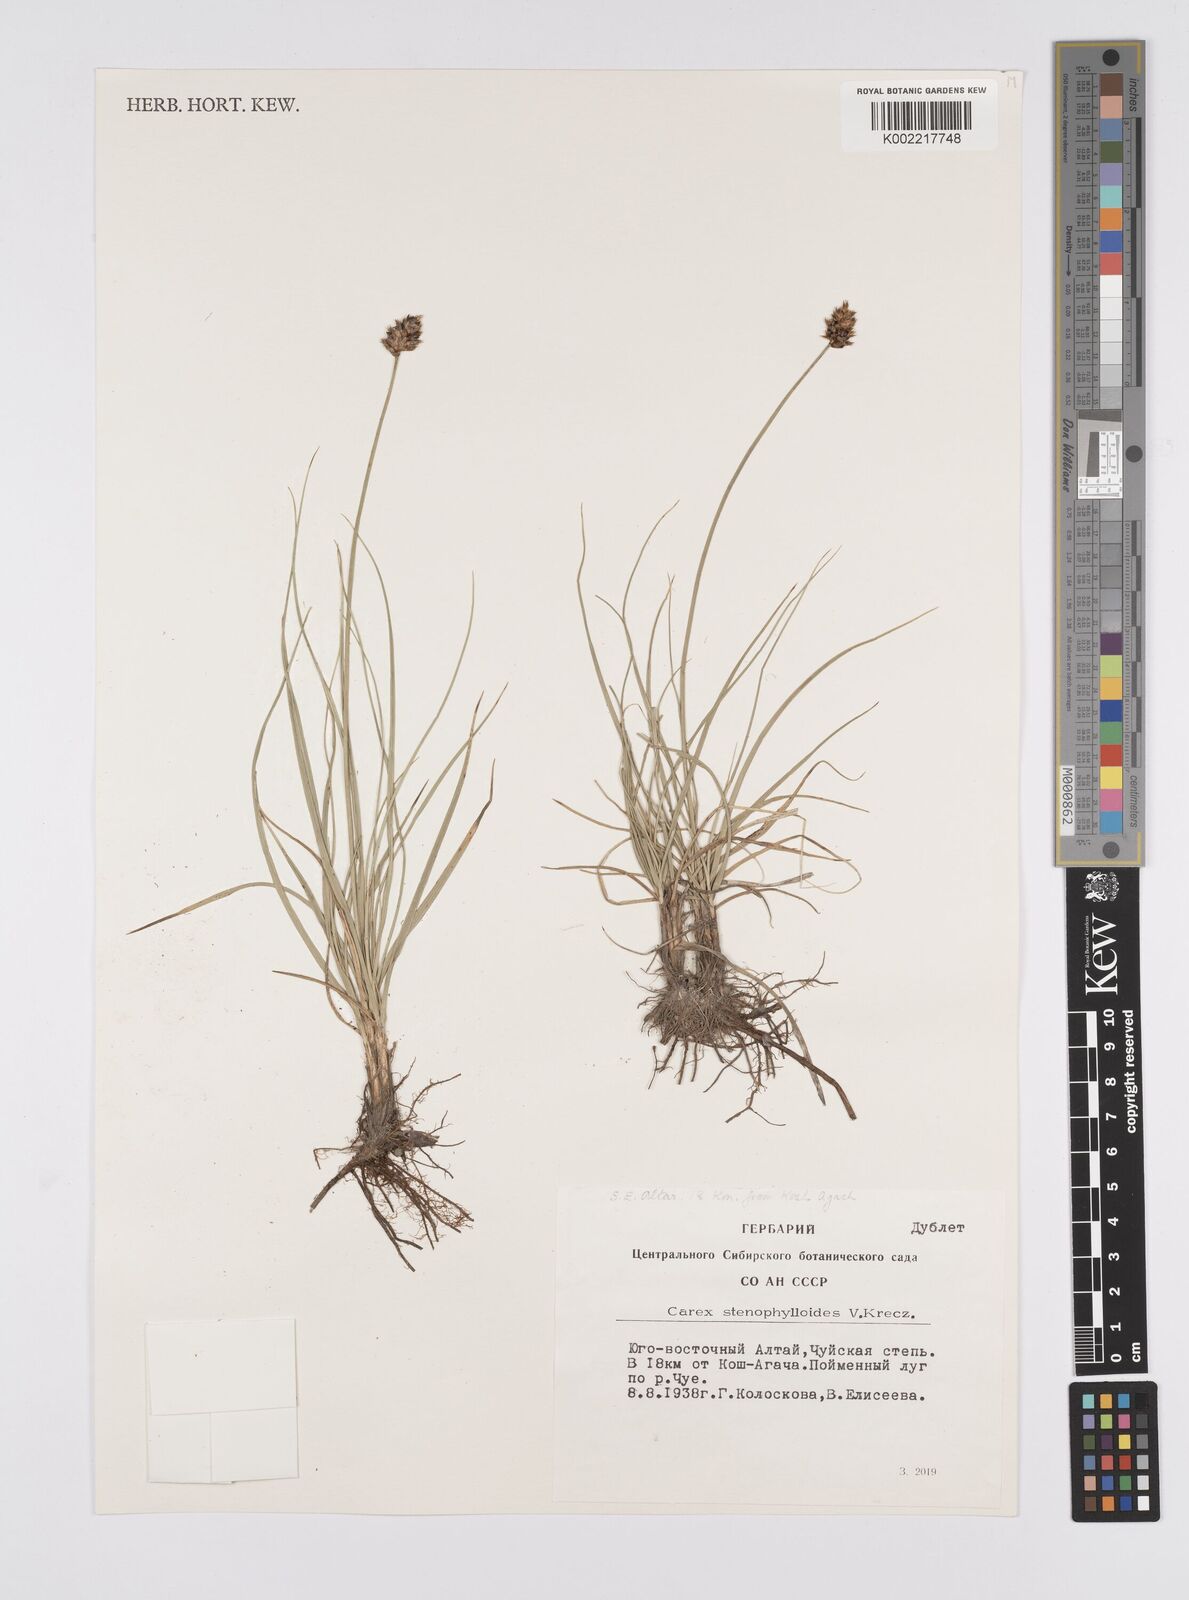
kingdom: Plantae
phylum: Tracheophyta
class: Liliopsida
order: Poales
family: Cyperaceae
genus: Carex
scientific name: Carex stenophylla
